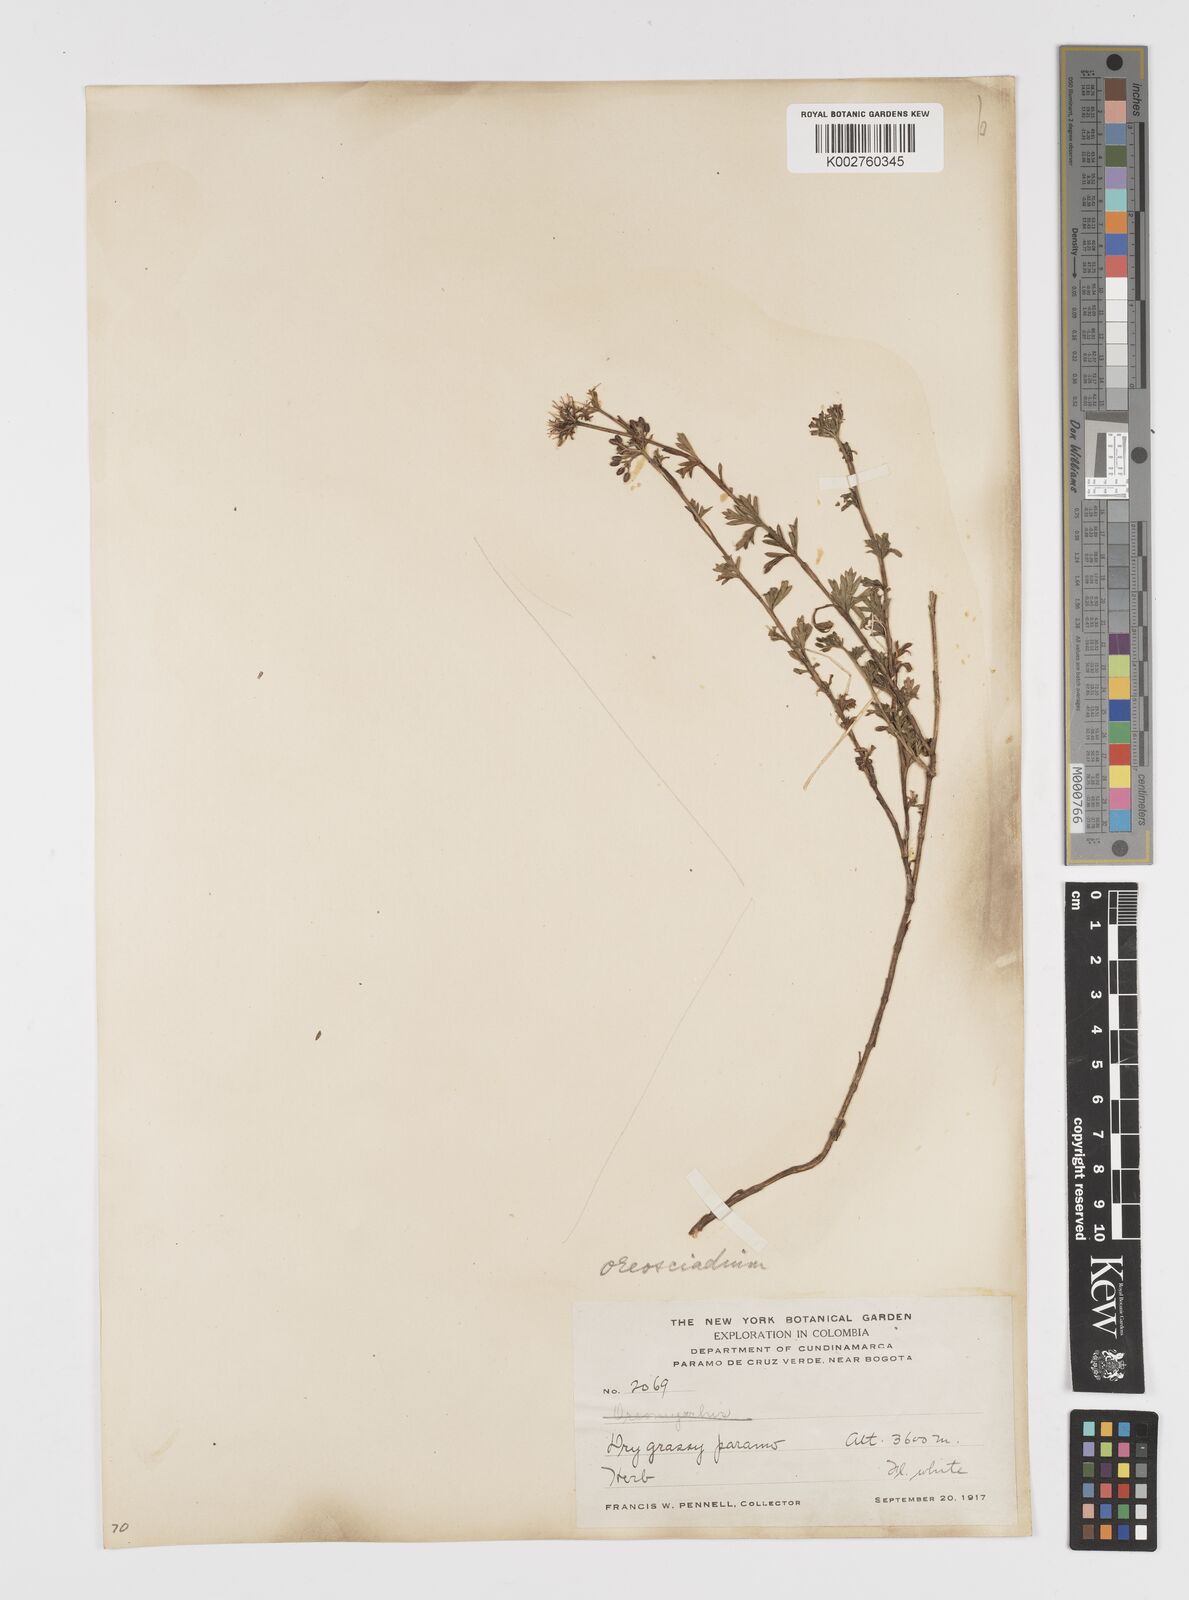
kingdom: Plantae
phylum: Tracheophyta
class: Magnoliopsida
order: Apiales
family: Apiaceae
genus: Niphogeton
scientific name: Niphogeton glaucescens
